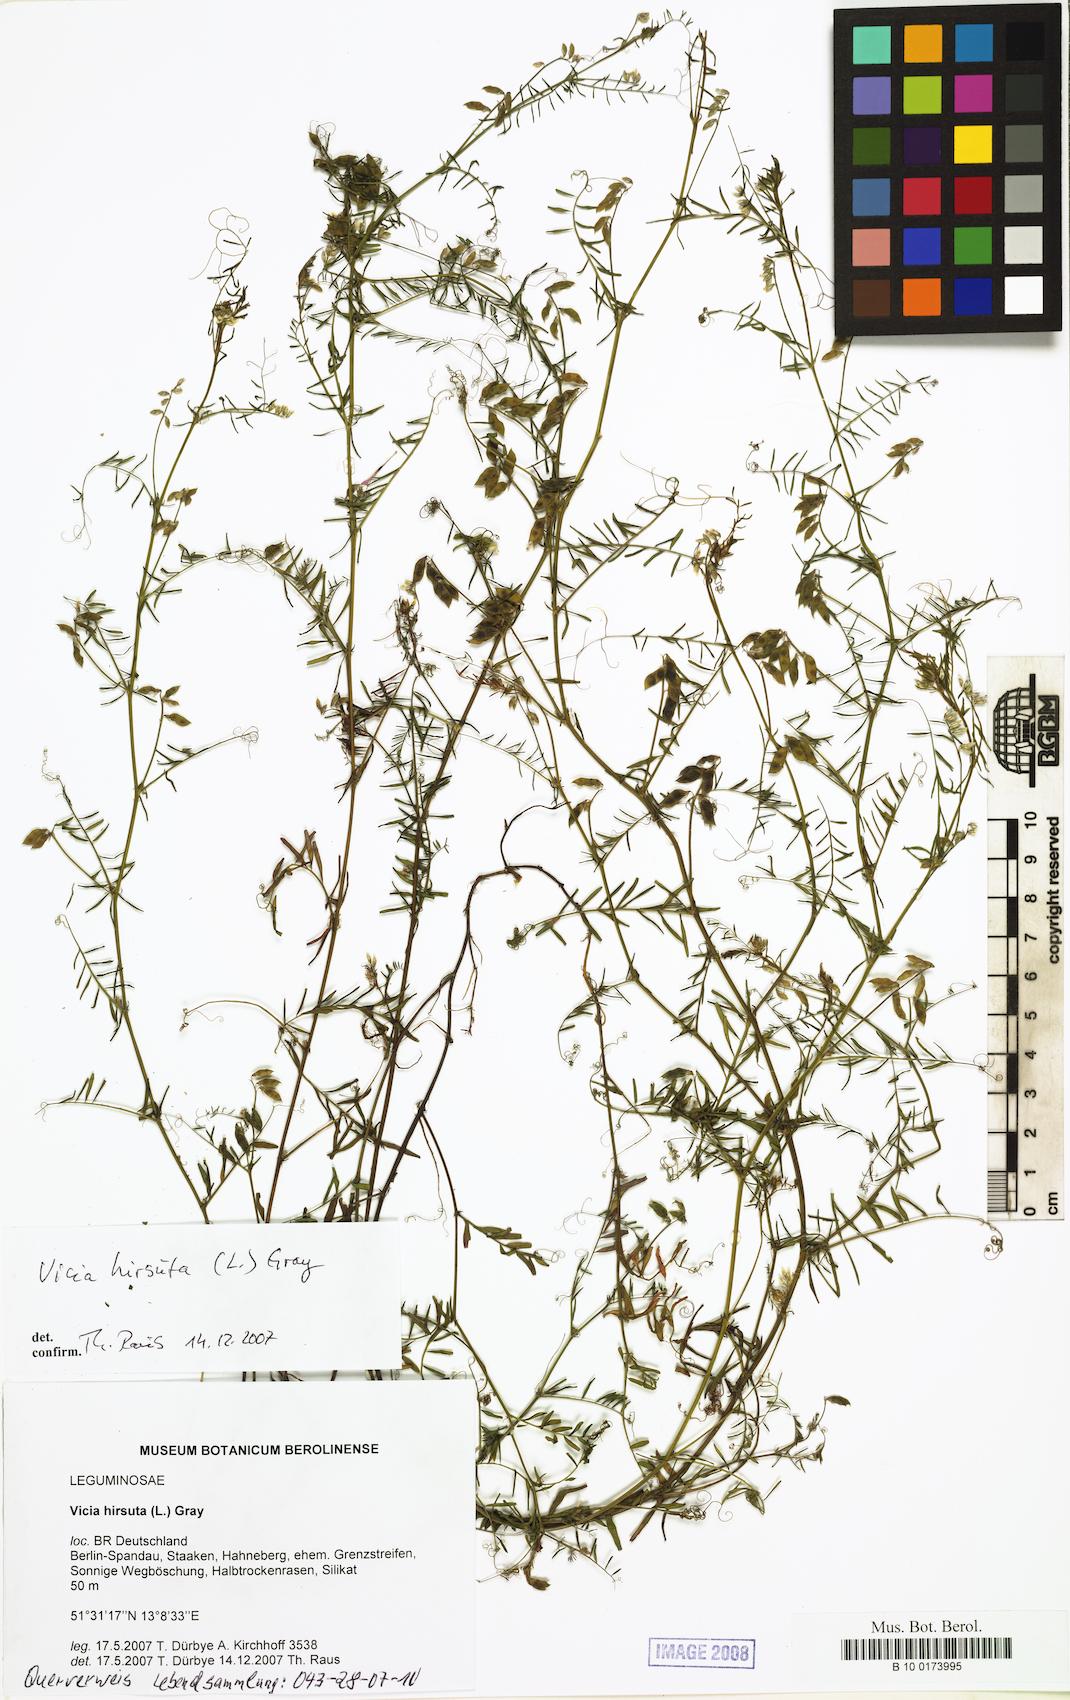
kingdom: Plantae
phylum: Tracheophyta
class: Magnoliopsida
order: Fabales
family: Fabaceae
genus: Vicia
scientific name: Vicia hirsuta
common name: Tiny vetch
